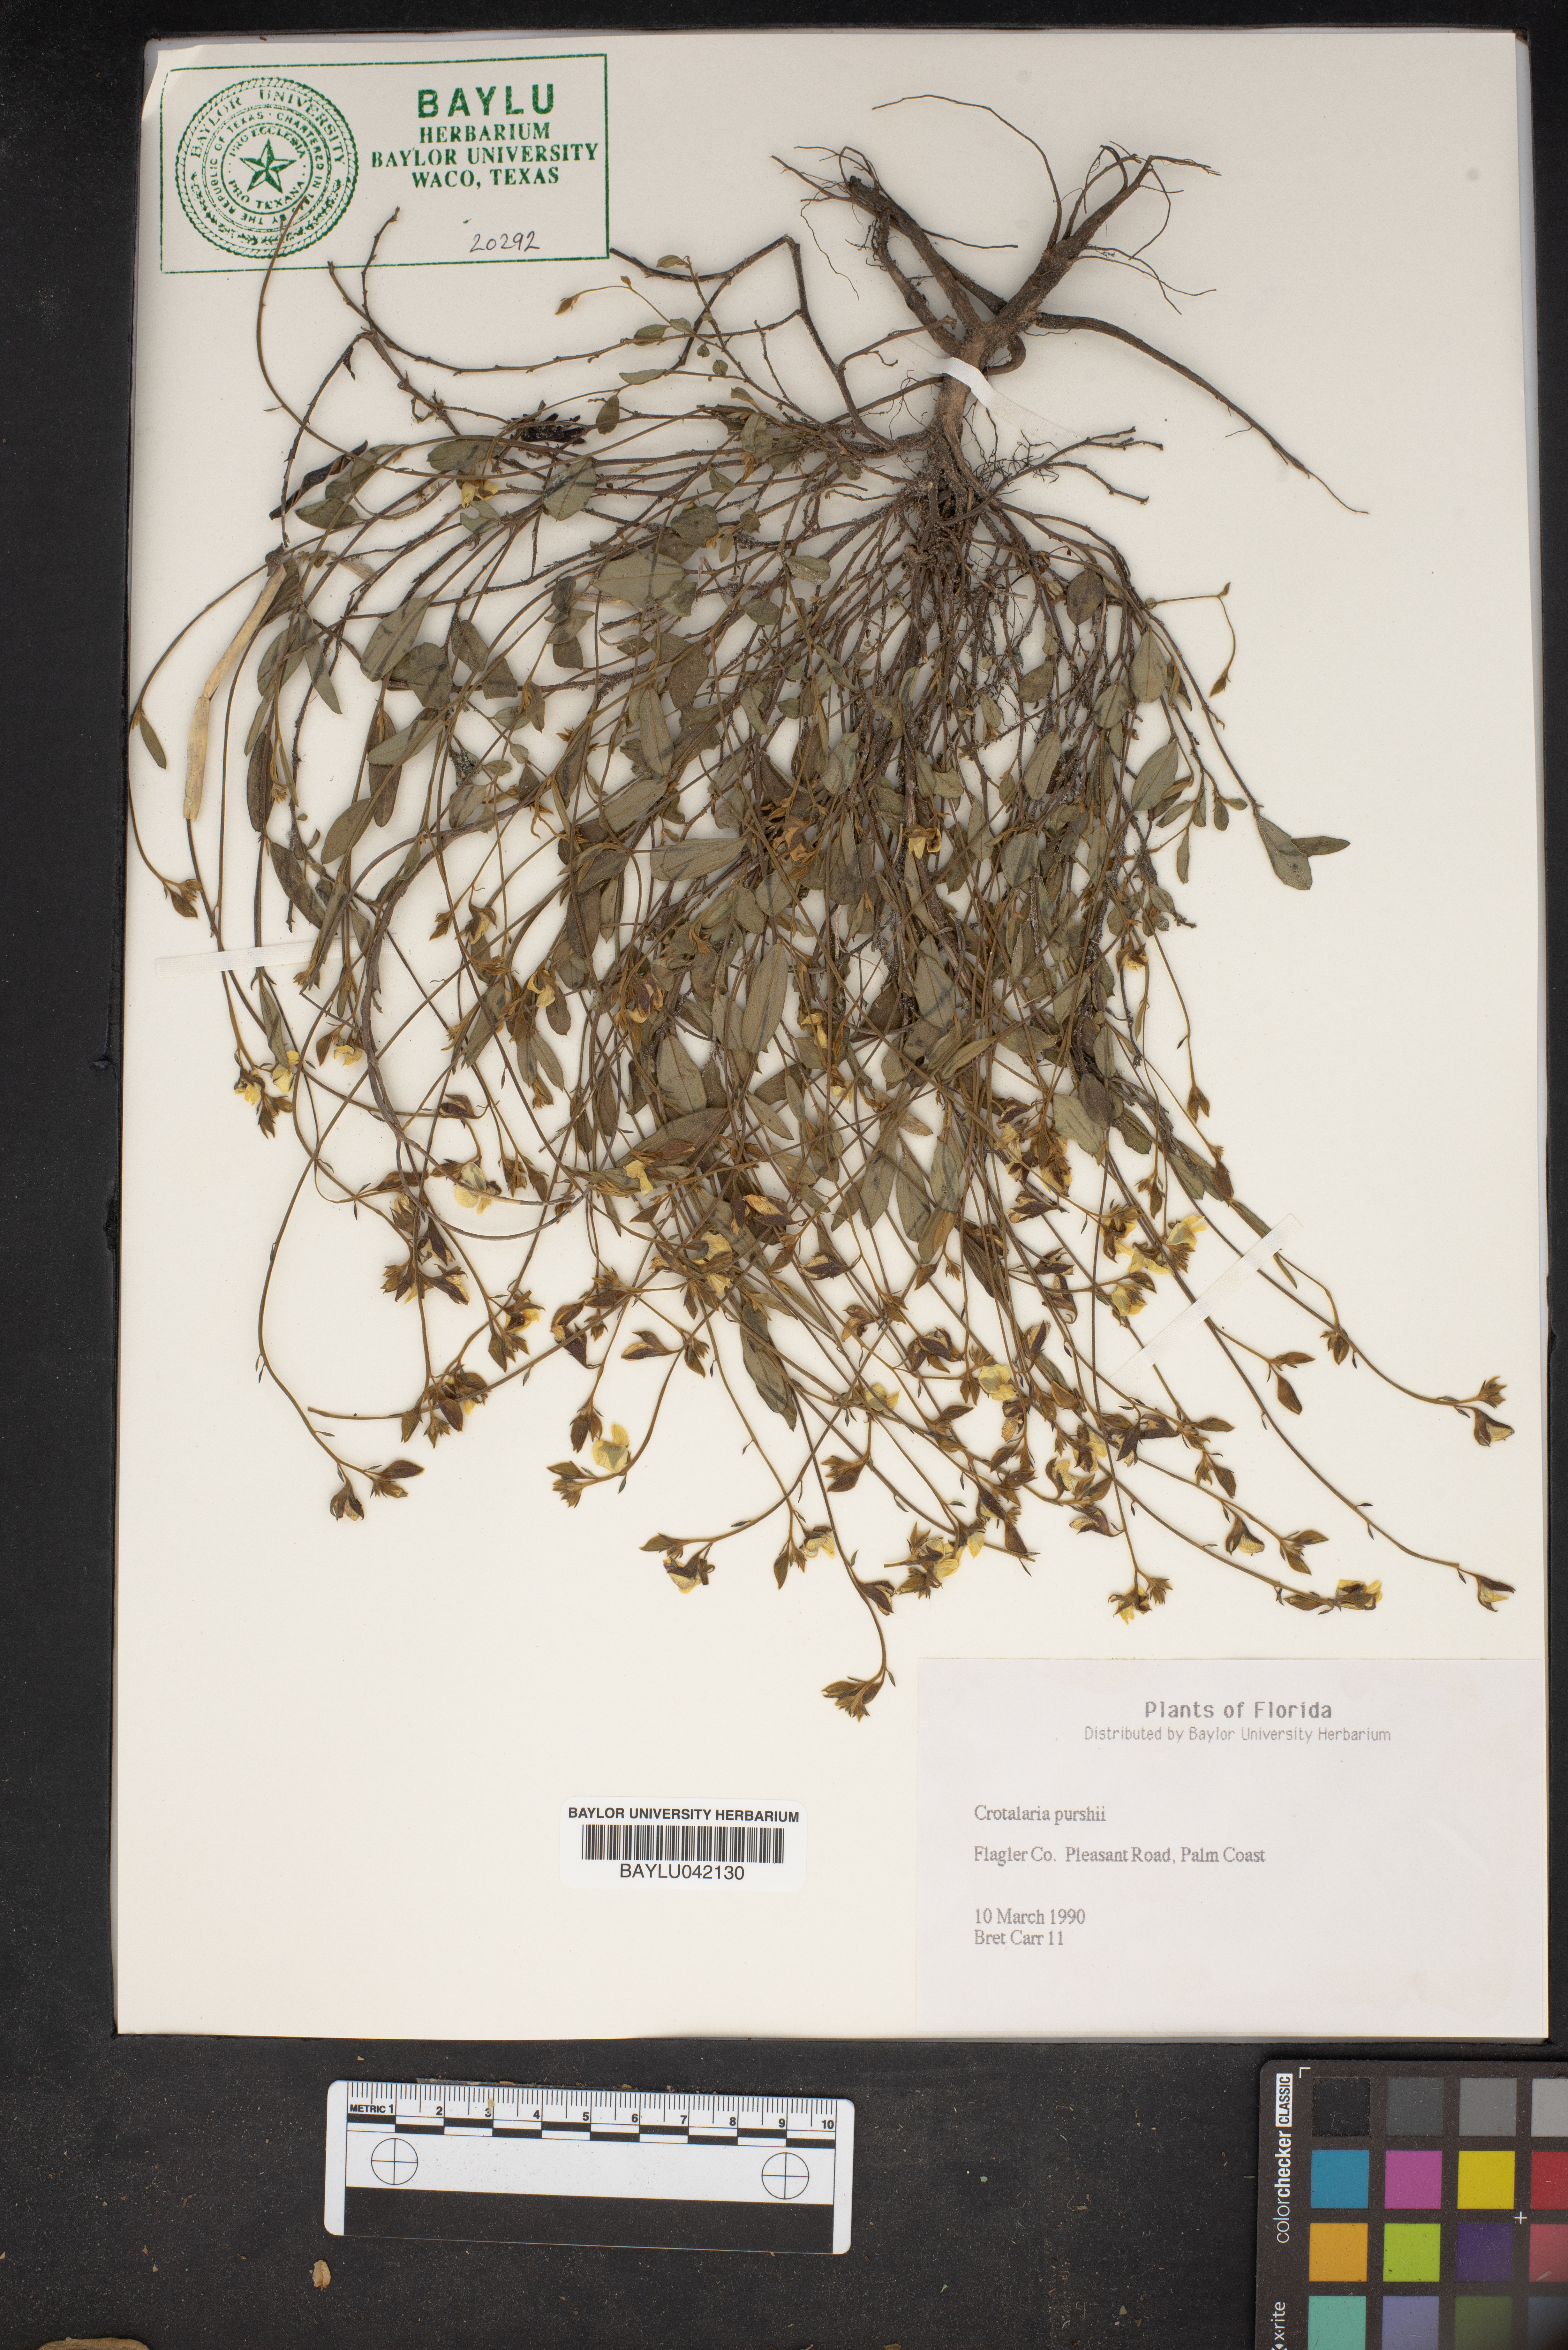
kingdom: Plantae
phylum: Tracheophyta
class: Magnoliopsida
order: Fabales
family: Fabaceae
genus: Crotalaria
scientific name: Crotalaria purshii
